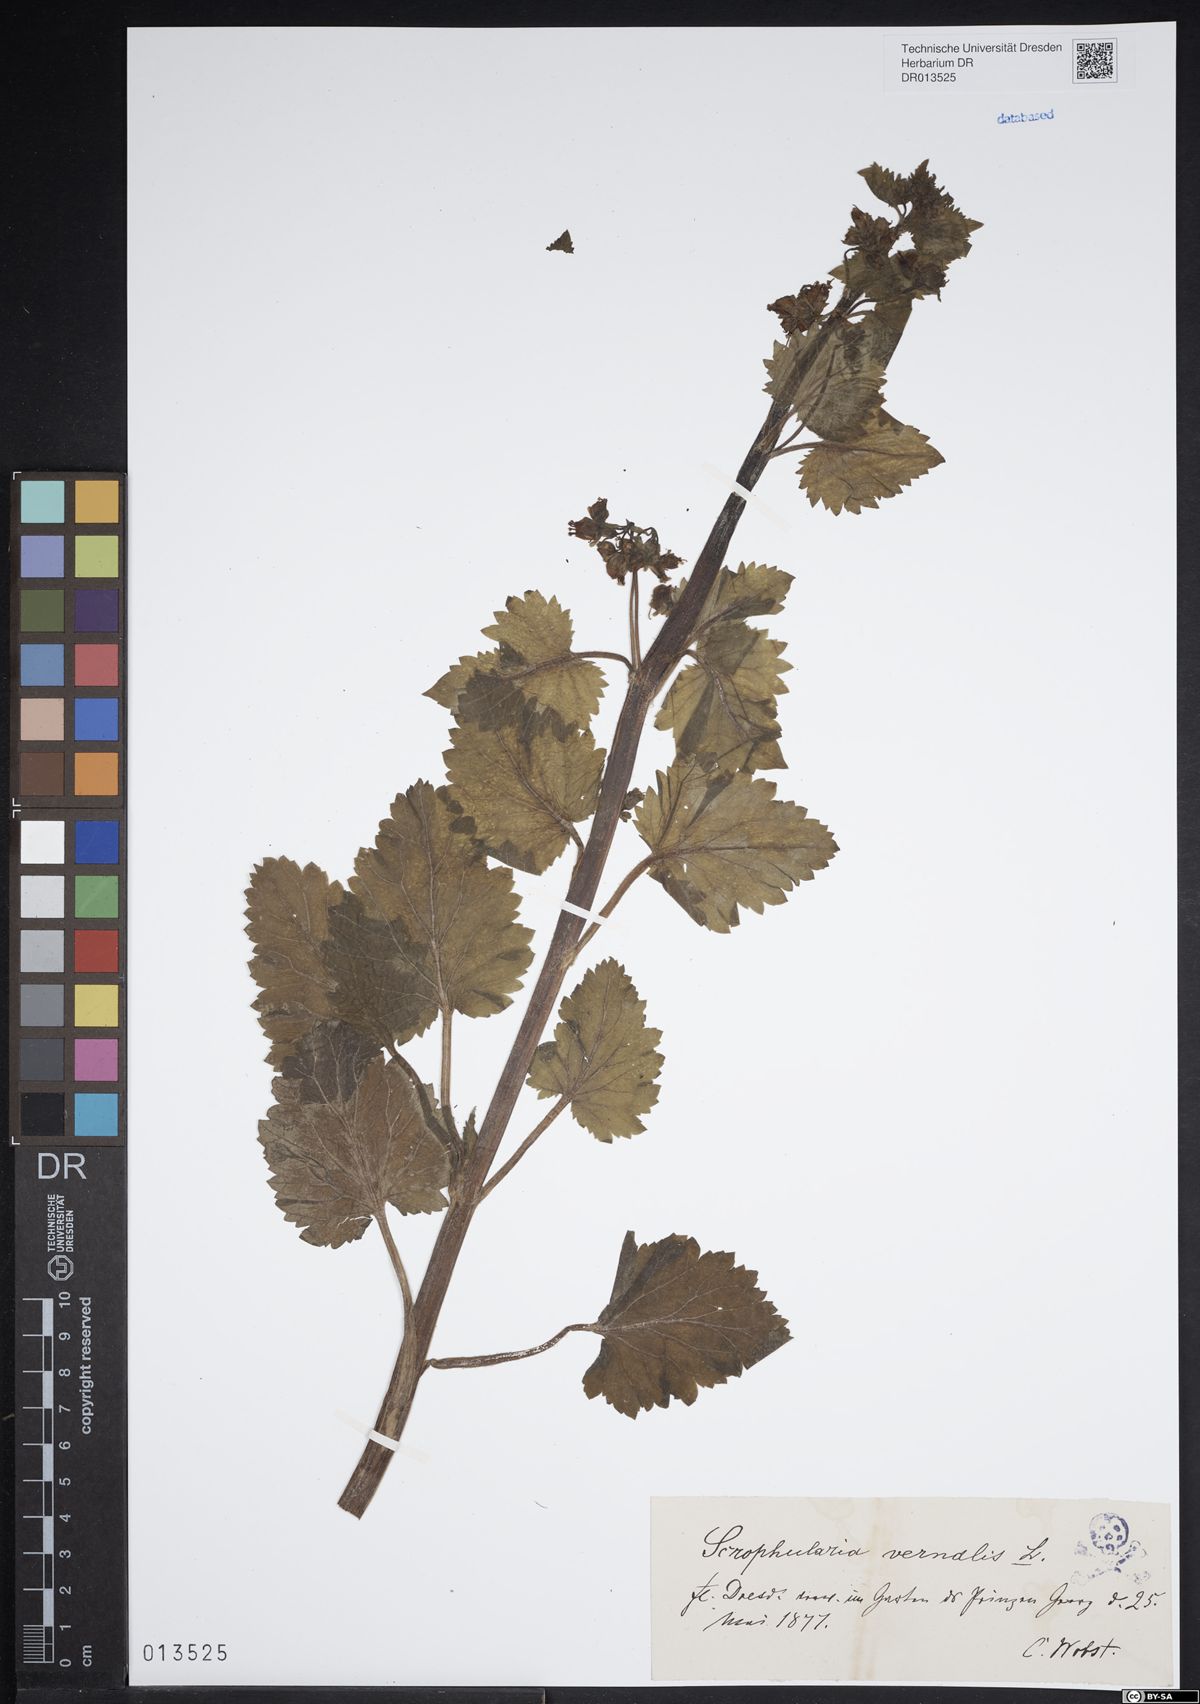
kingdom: Plantae
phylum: Tracheophyta
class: Magnoliopsida
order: Lamiales
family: Scrophulariaceae
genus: Scrophularia
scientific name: Scrophularia vernalis
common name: Yellow figwort
